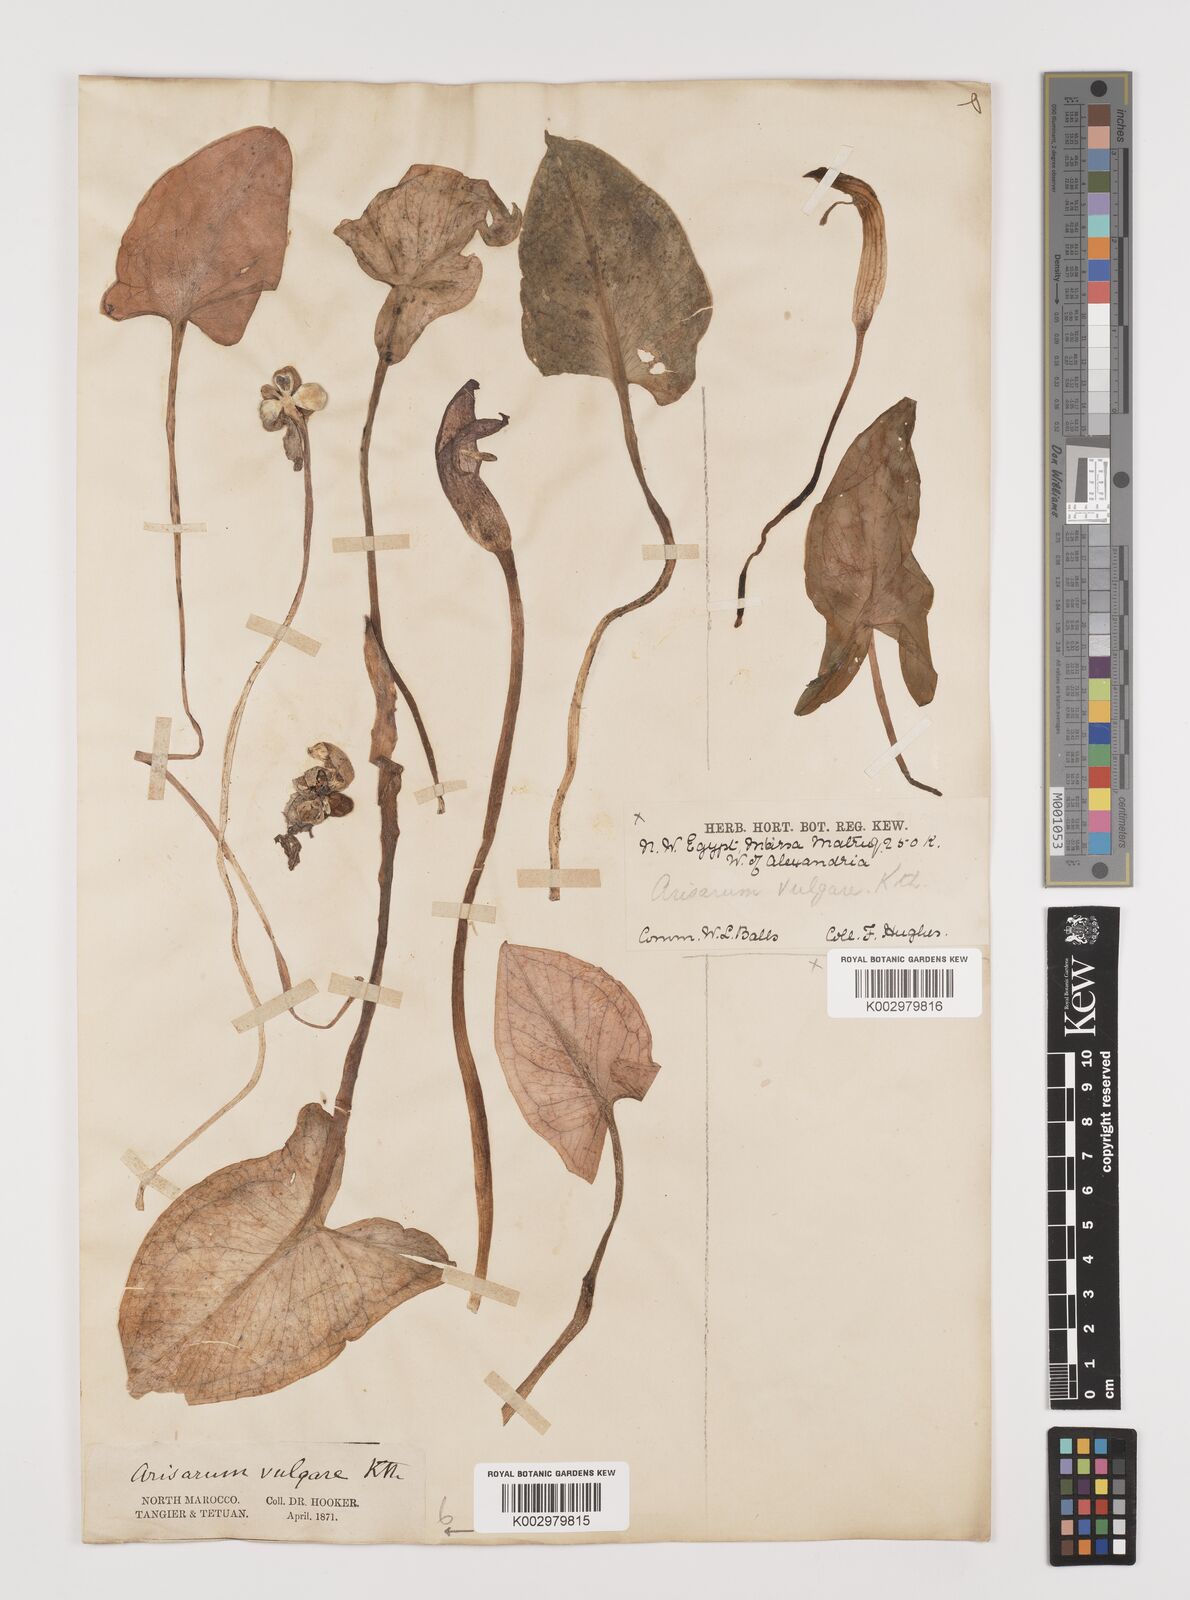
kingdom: Plantae
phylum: Tracheophyta
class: Liliopsida
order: Alismatales
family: Araceae
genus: Arisarum
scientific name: Arisarum vulgare
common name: Common arisarum
